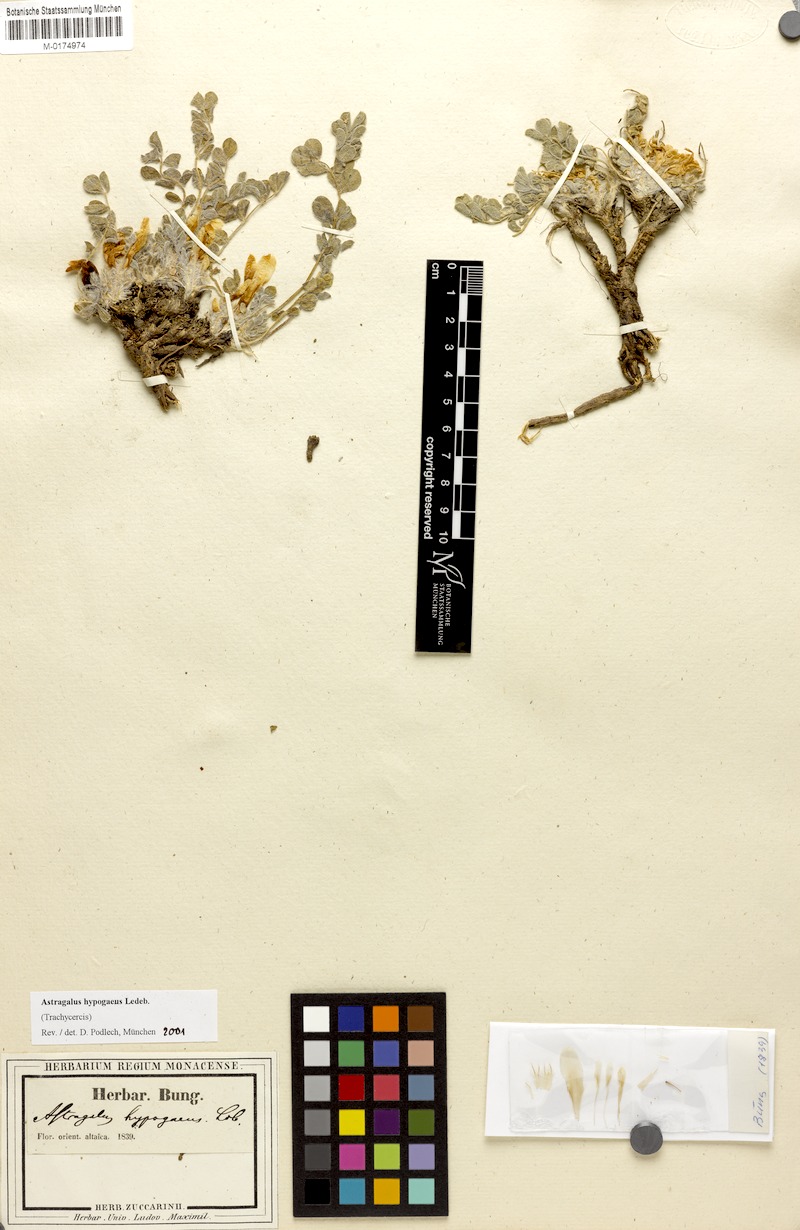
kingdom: Plantae
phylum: Tracheophyta
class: Magnoliopsida
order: Fabales
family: Fabaceae
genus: Astragalus
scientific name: Astragalus hypogaeus
